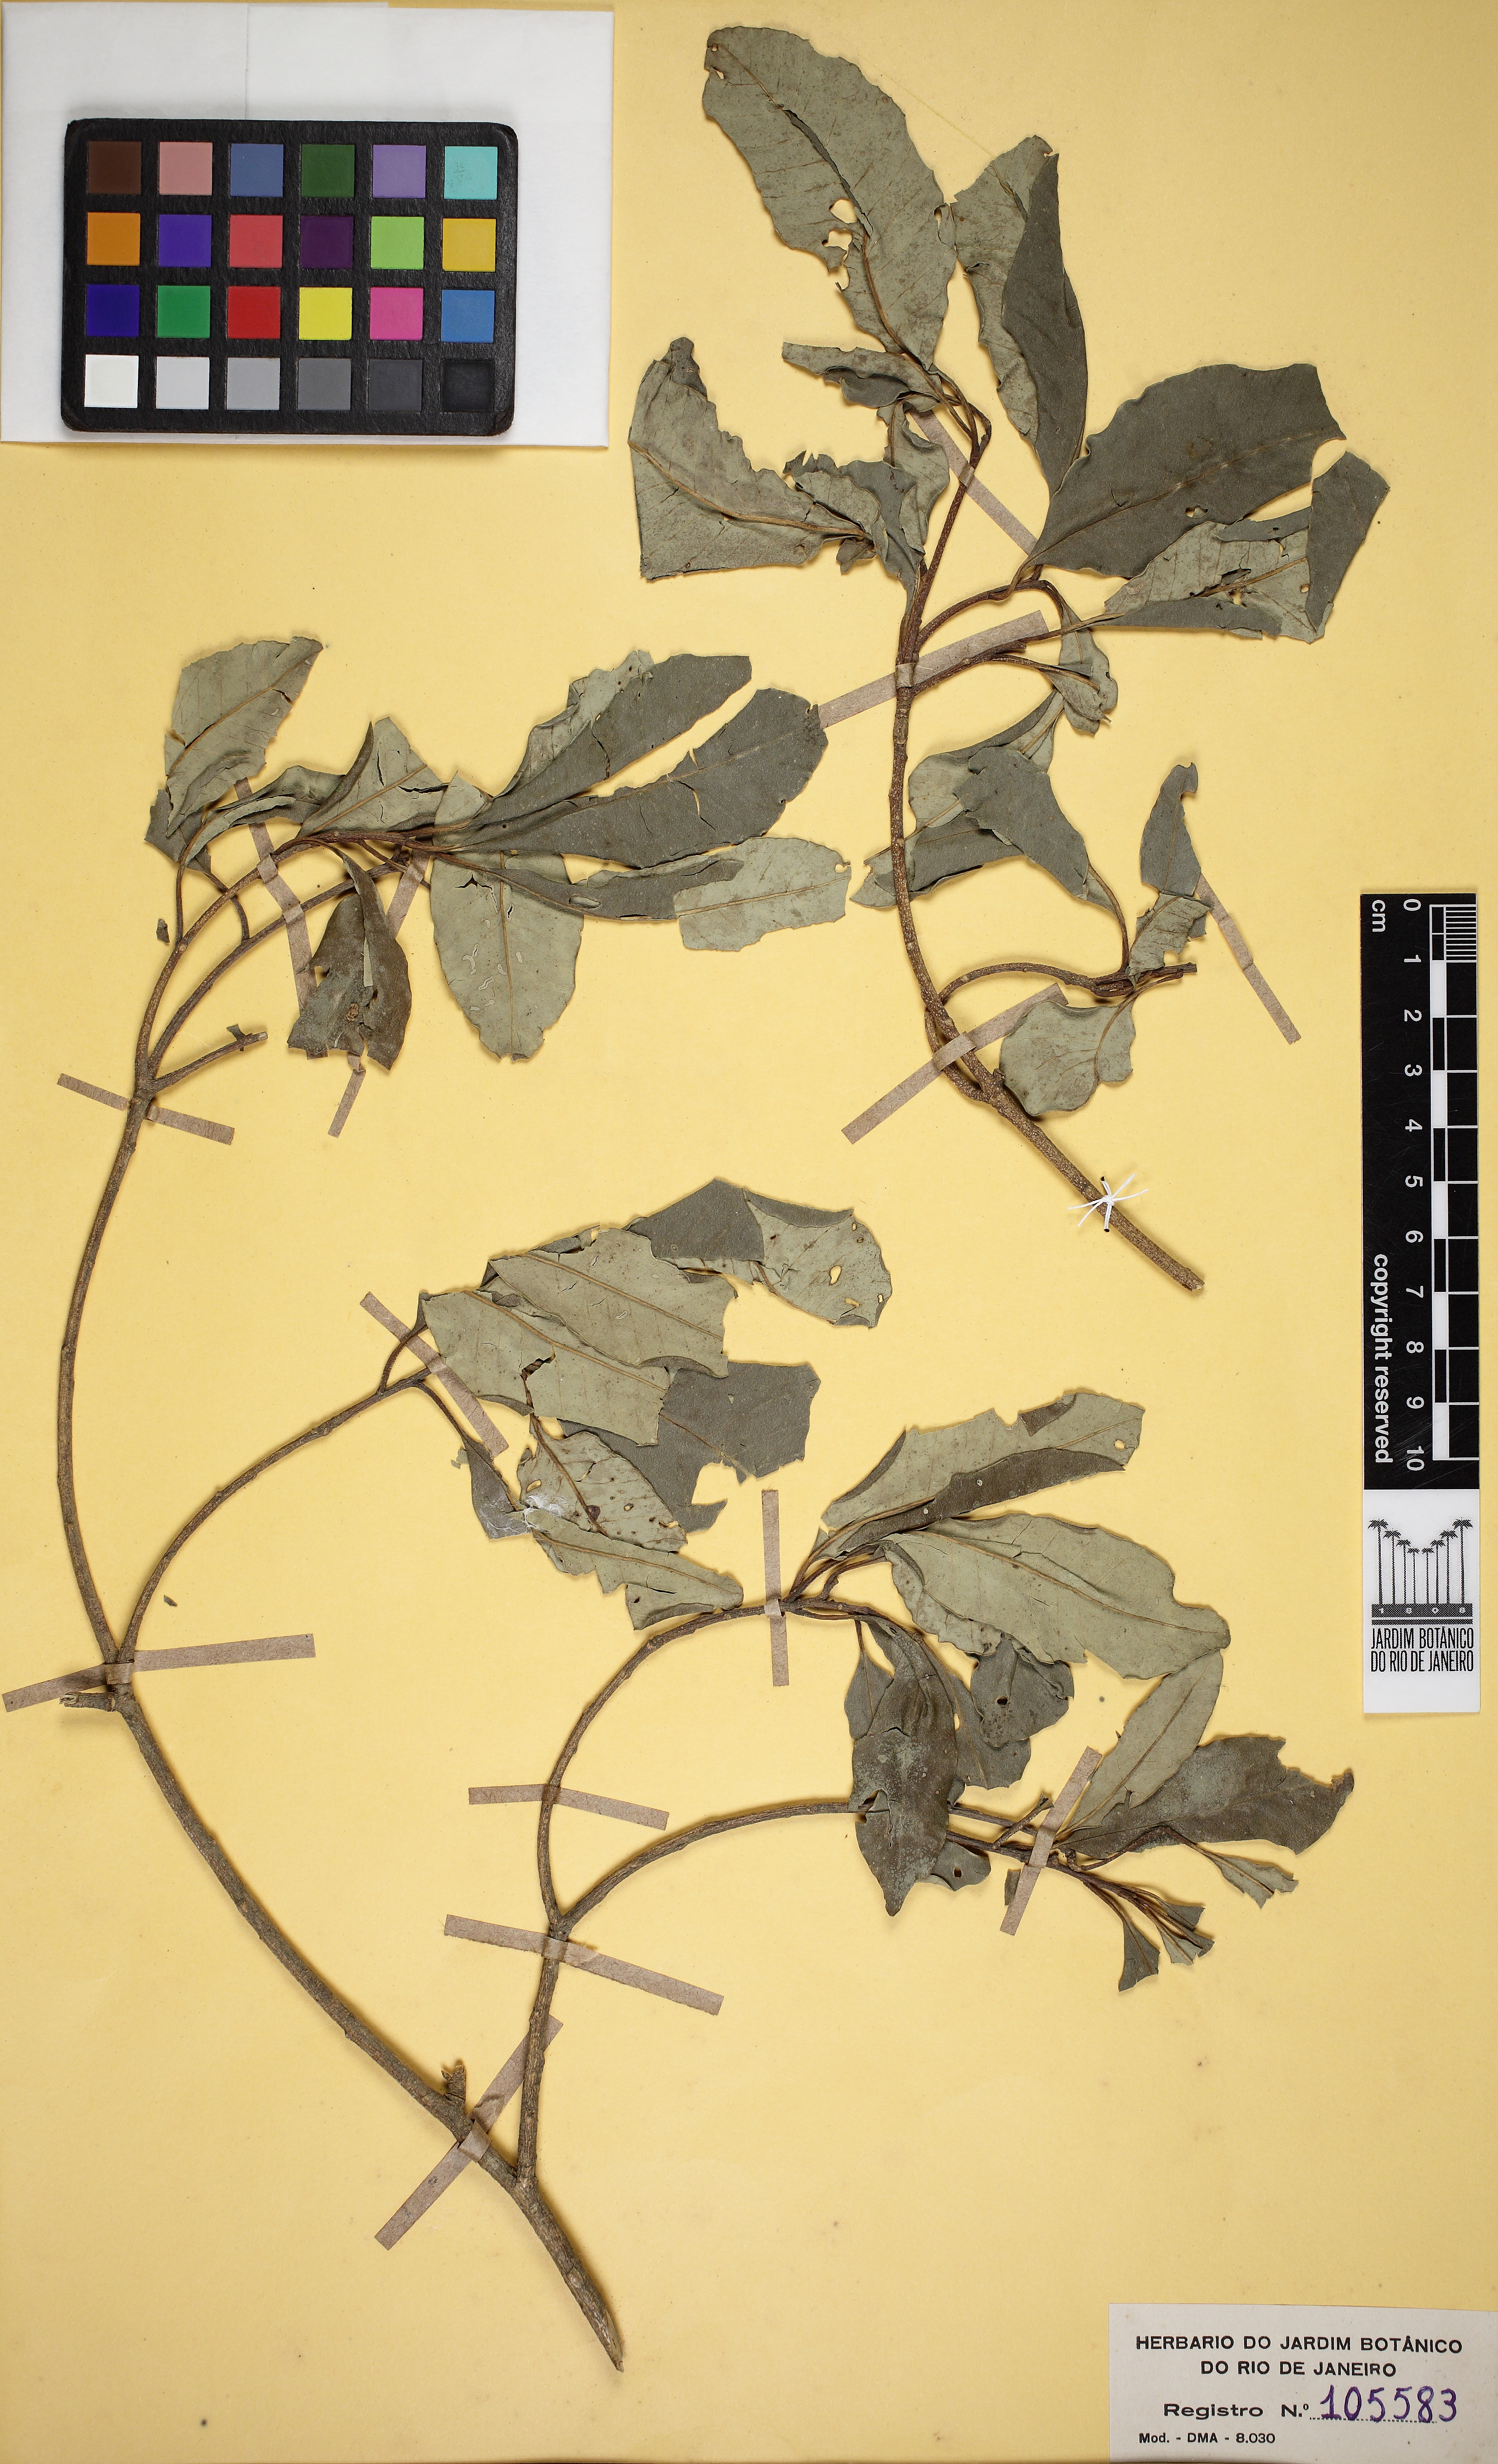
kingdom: Plantae
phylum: Tracheophyta
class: Magnoliopsida
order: Gentianales
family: Apocynaceae
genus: Aspidosperma
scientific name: Aspidosperma olivaceum
